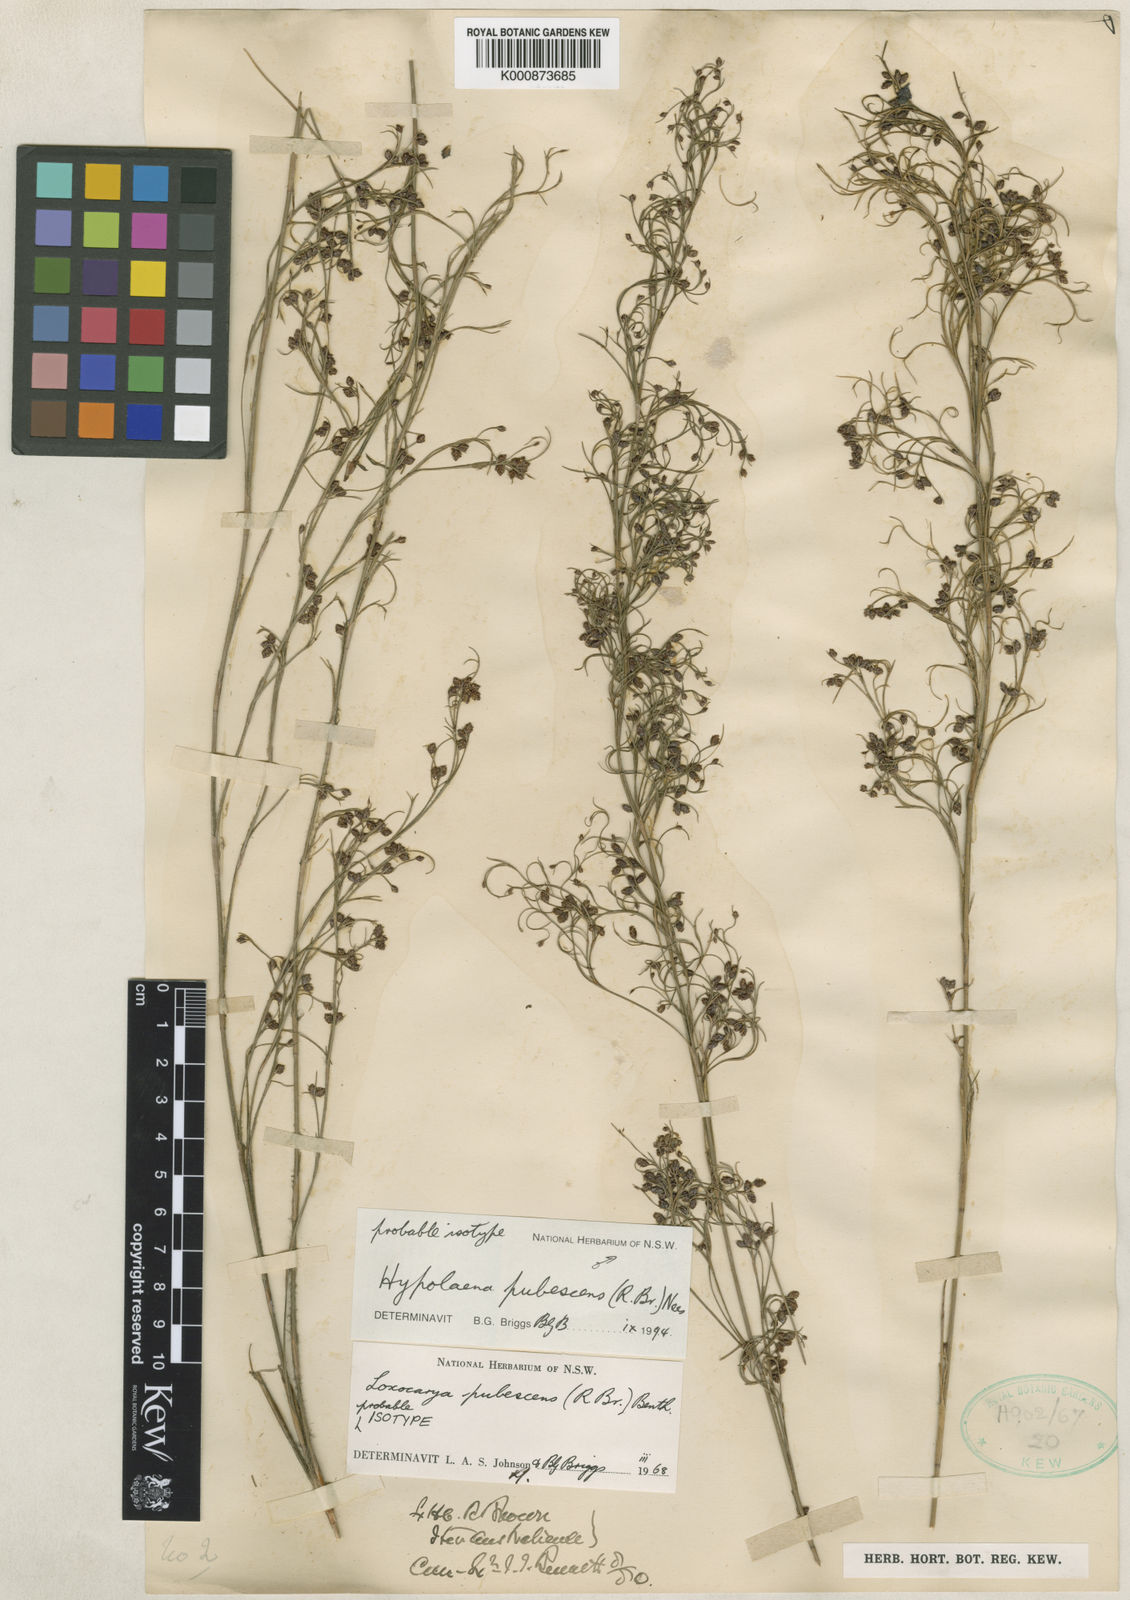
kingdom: Plantae
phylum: Tracheophyta
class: Liliopsida
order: Poales
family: Restionaceae
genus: Hypolaena
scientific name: Hypolaena pubescens
